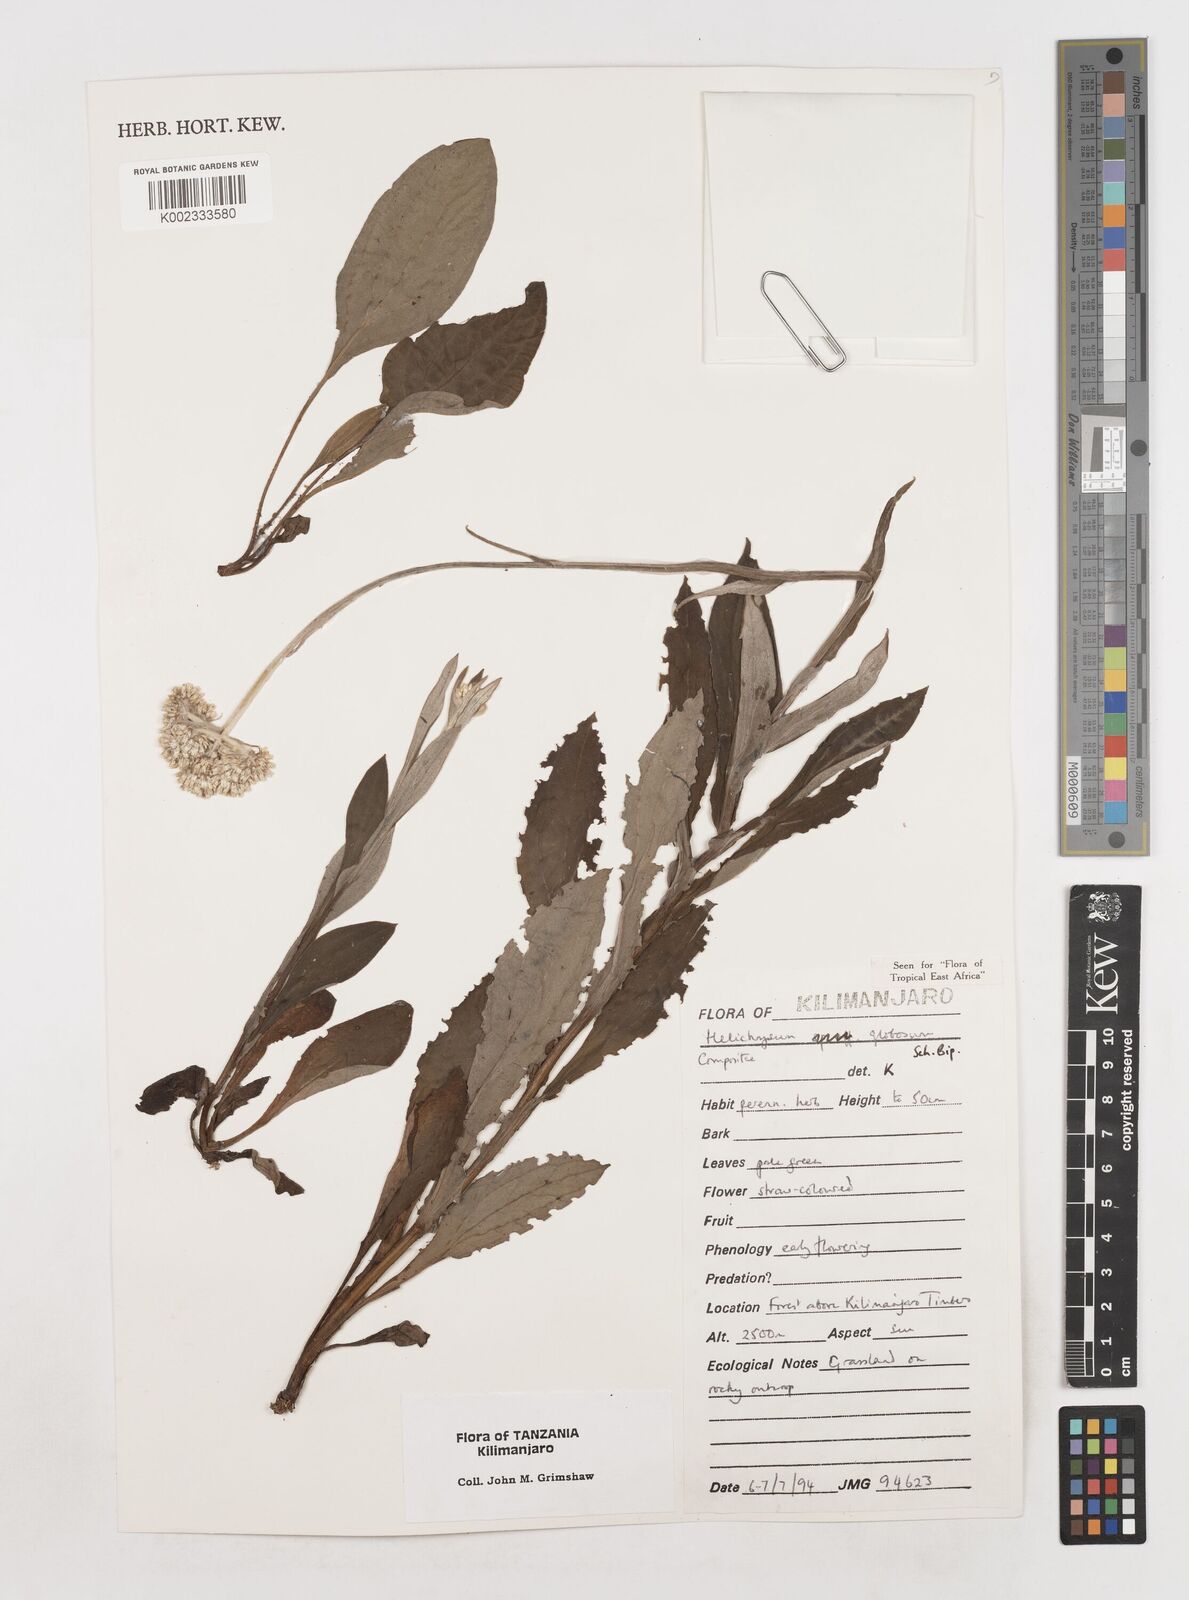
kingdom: Plantae
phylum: Tracheophyta
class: Magnoliopsida
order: Asterales
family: Asteraceae
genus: Helichrysum
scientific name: Helichrysum globosum
